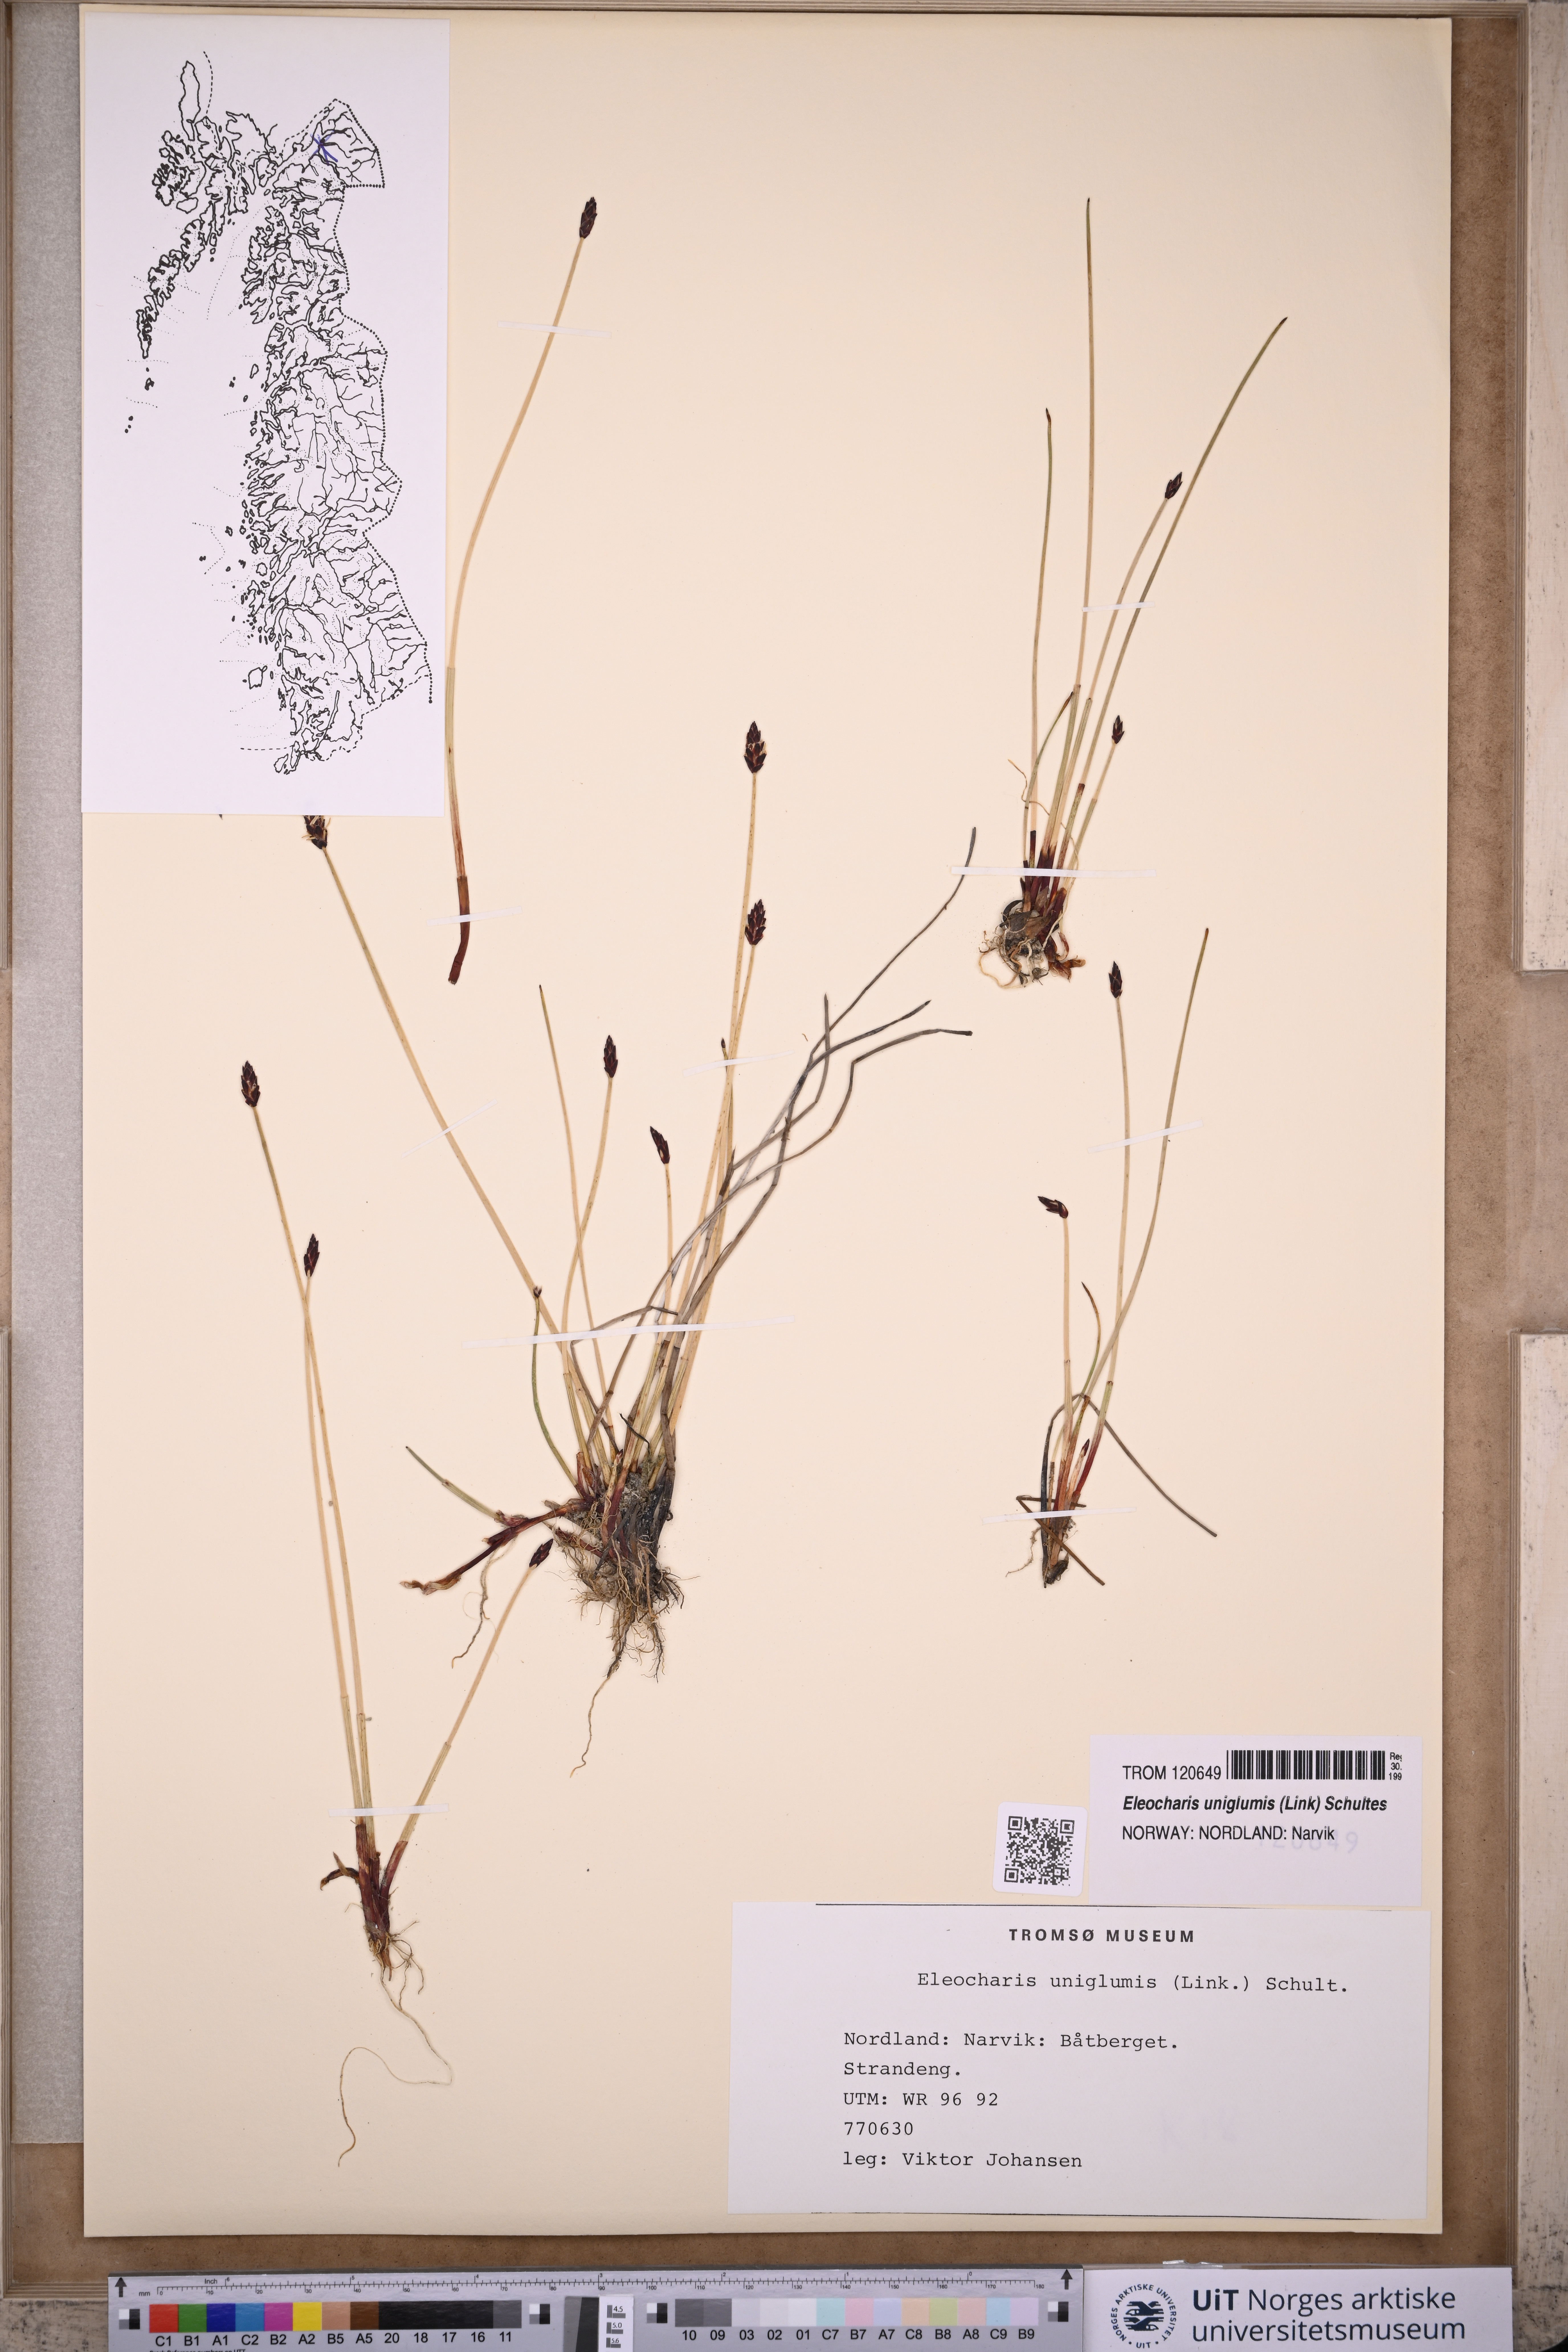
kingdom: Plantae
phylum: Tracheophyta
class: Liliopsida
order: Poales
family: Cyperaceae
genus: Eleocharis
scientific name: Eleocharis uniglumis
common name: Slender spike-rush
